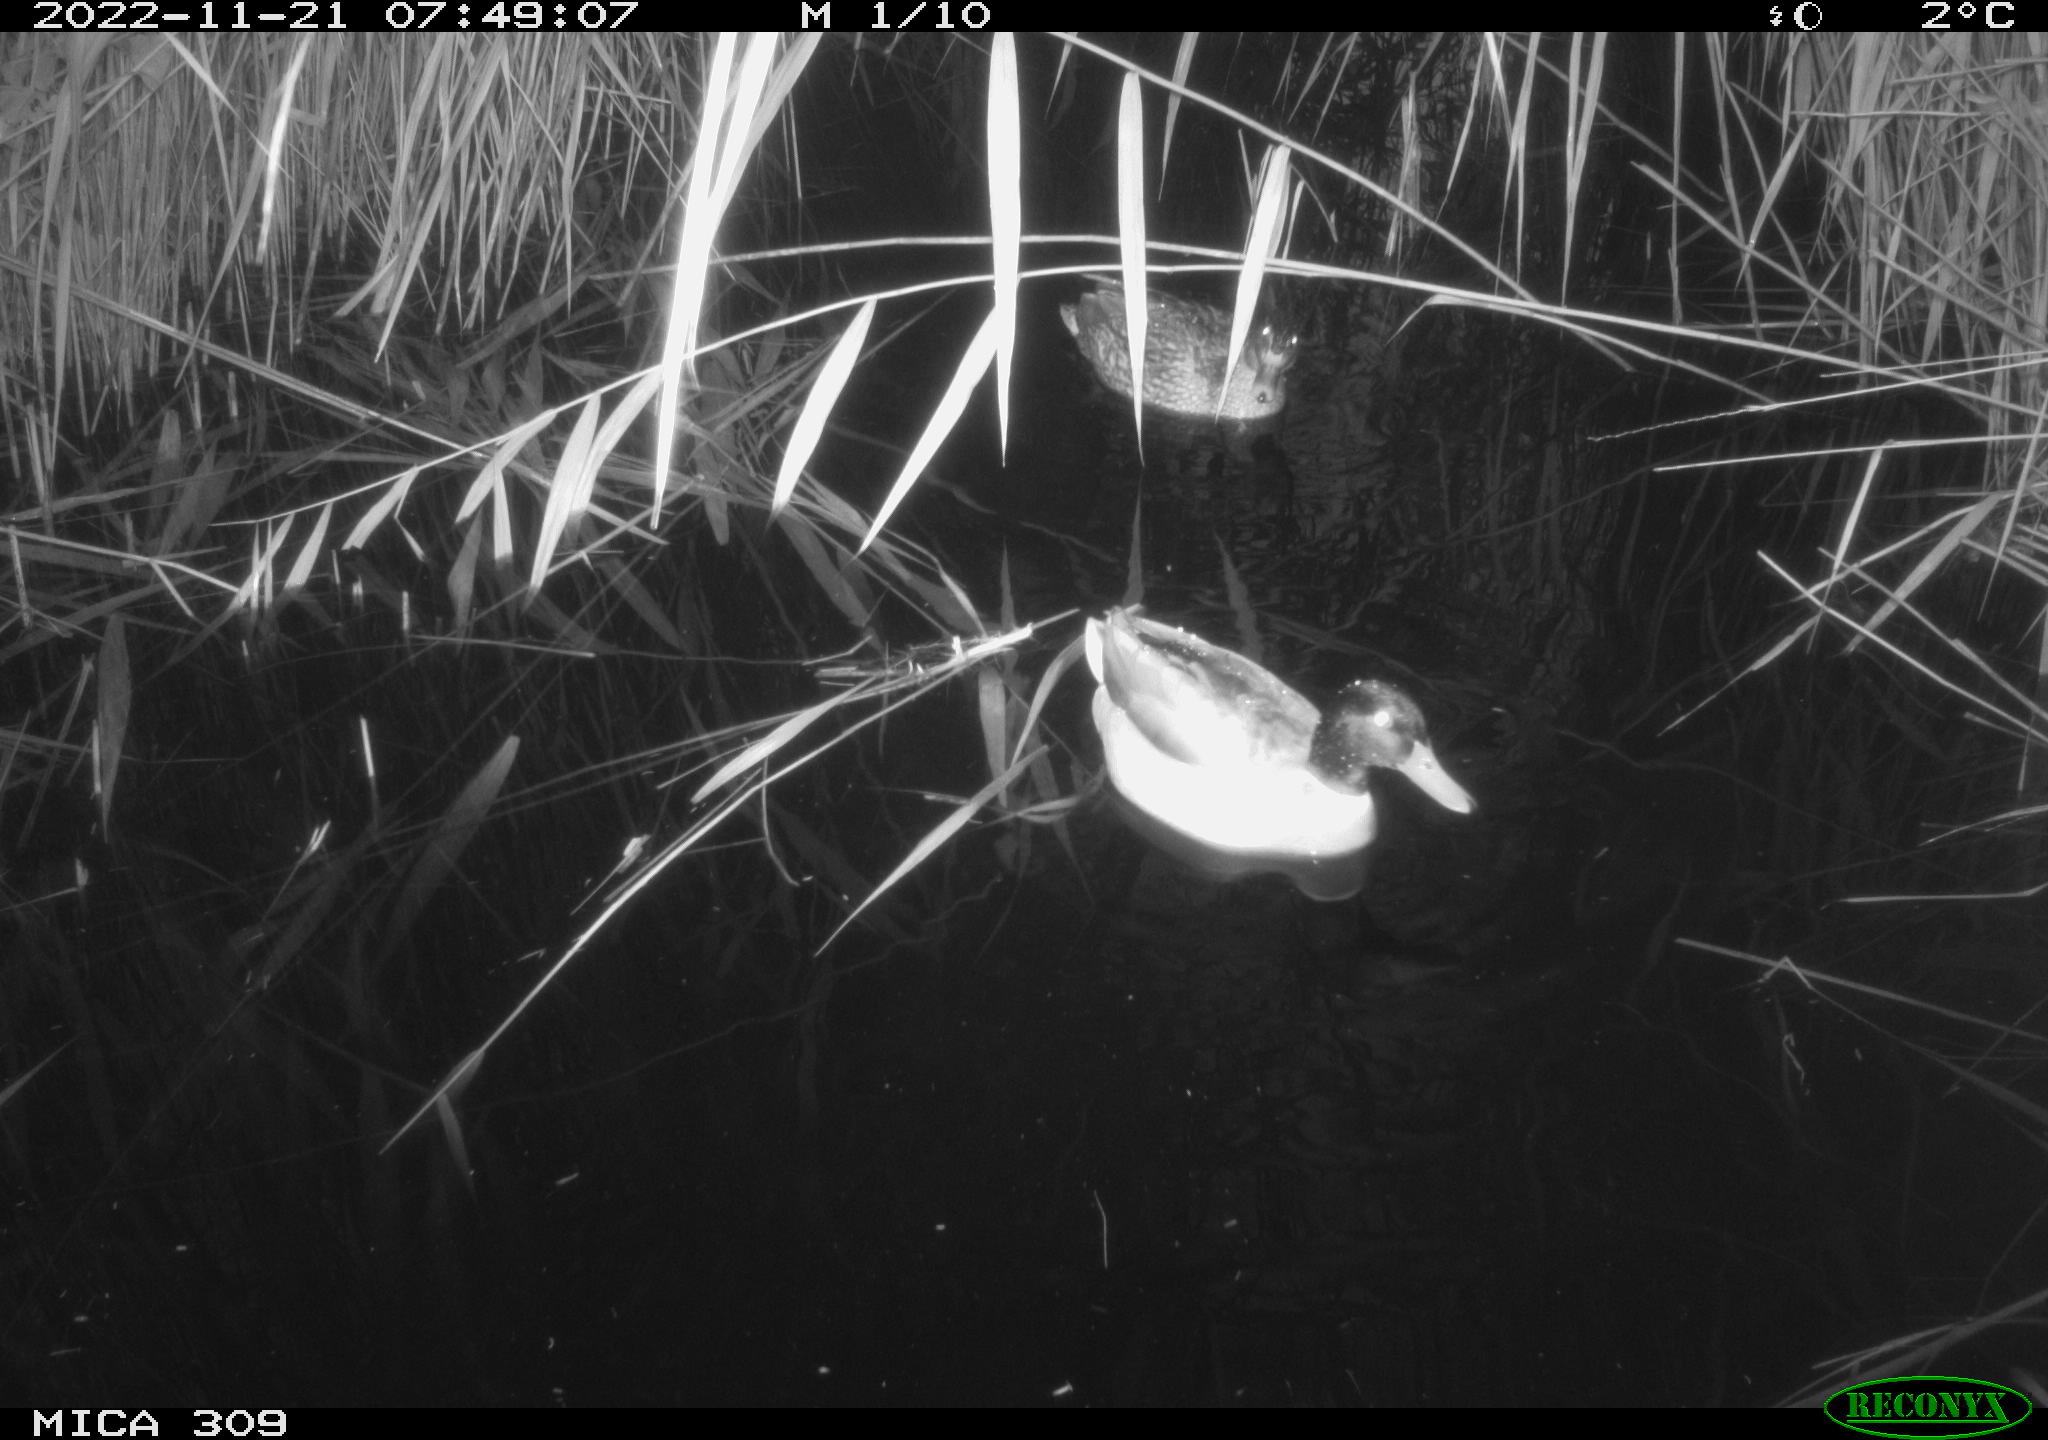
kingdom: Animalia
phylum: Chordata
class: Aves
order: Anseriformes
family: Anatidae
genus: Anas
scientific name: Anas
